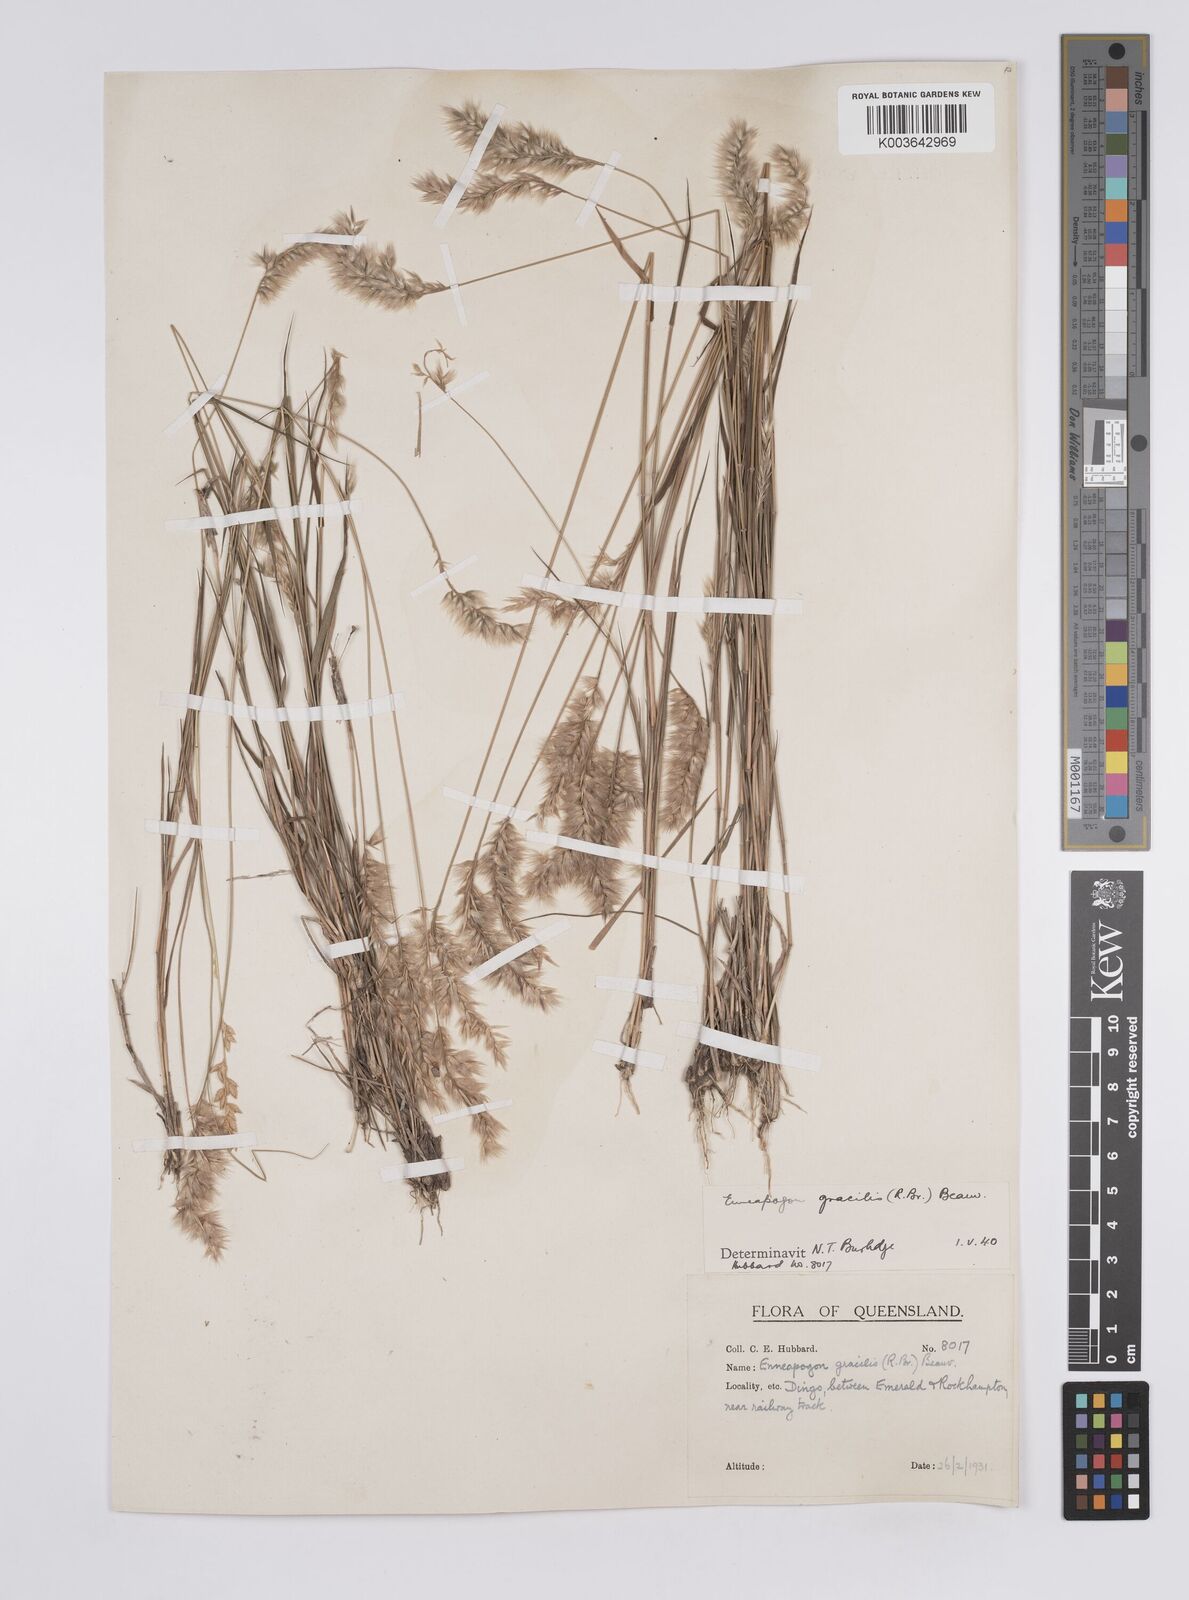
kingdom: Plantae
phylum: Tracheophyta
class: Liliopsida
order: Poales
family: Poaceae
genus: Enneapogon
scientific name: Enneapogon gracilis
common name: Slender bottle-washers
